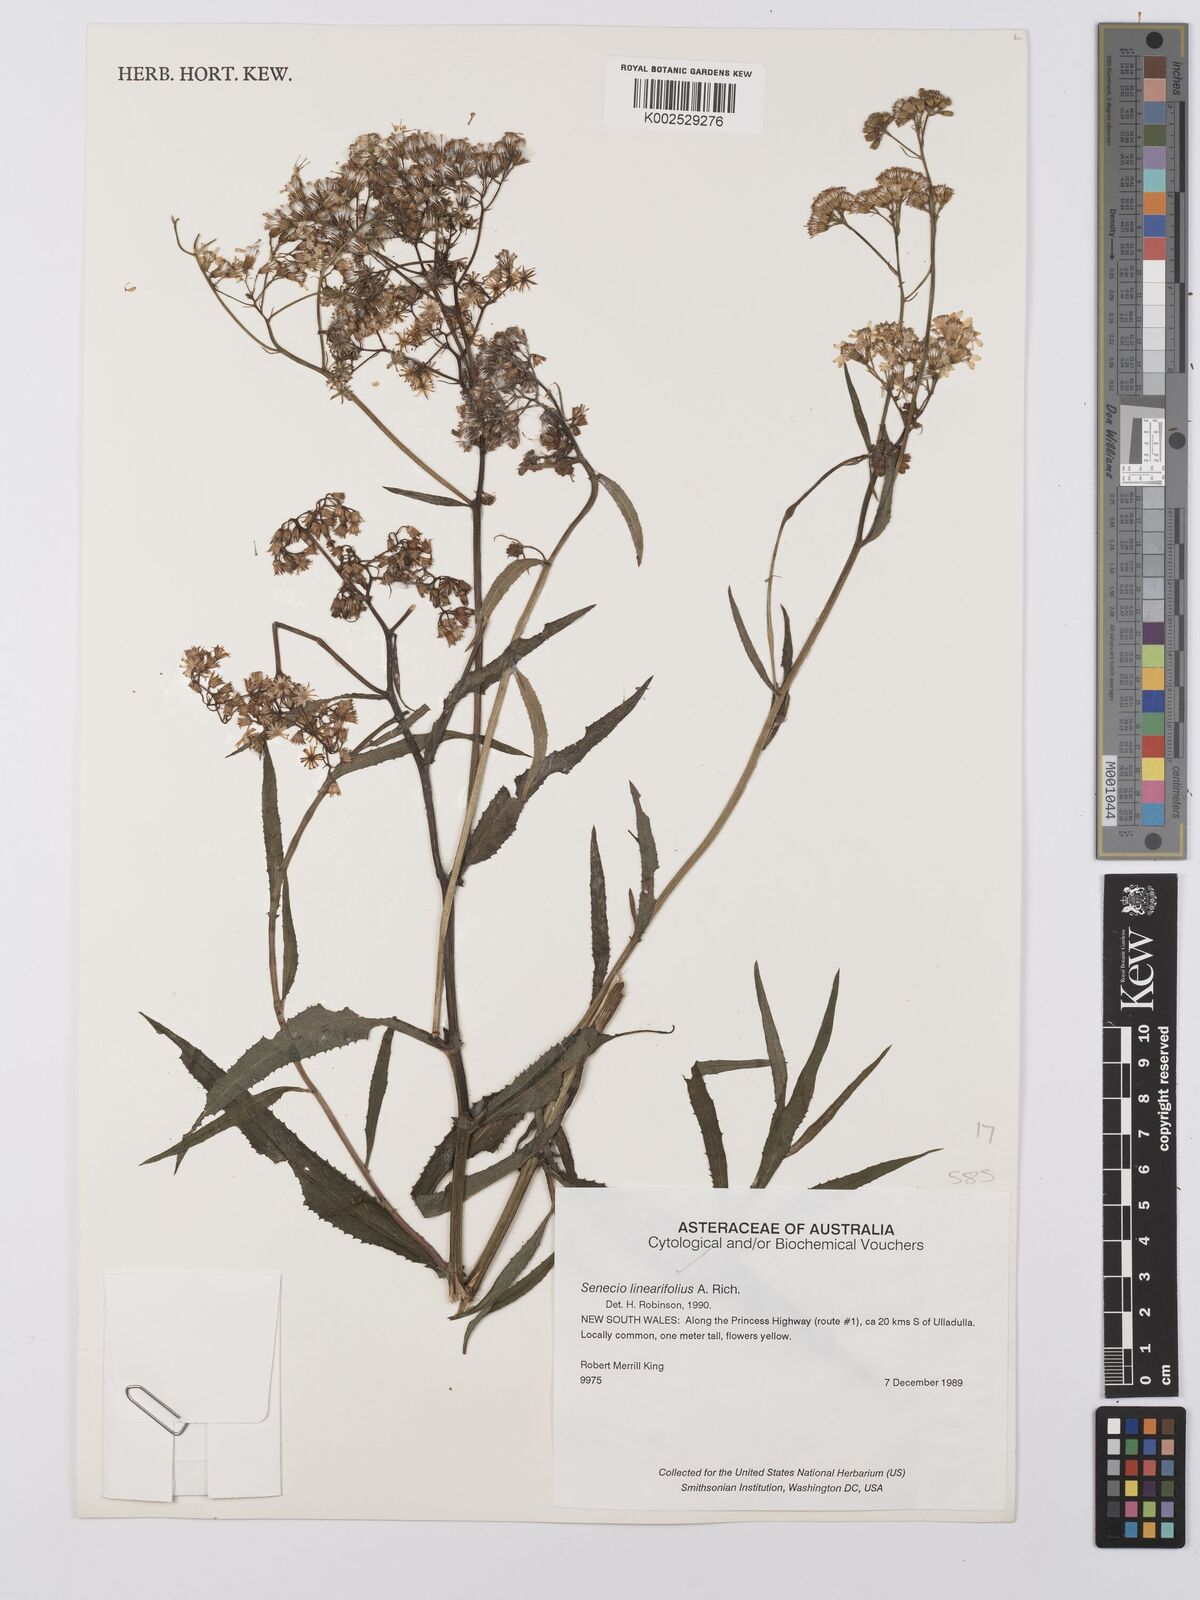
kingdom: Plantae
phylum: Tracheophyta
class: Magnoliopsida
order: Asterales
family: Asteraceae
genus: Senecio
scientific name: Senecio linearifolius
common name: Fireweed groundsel
